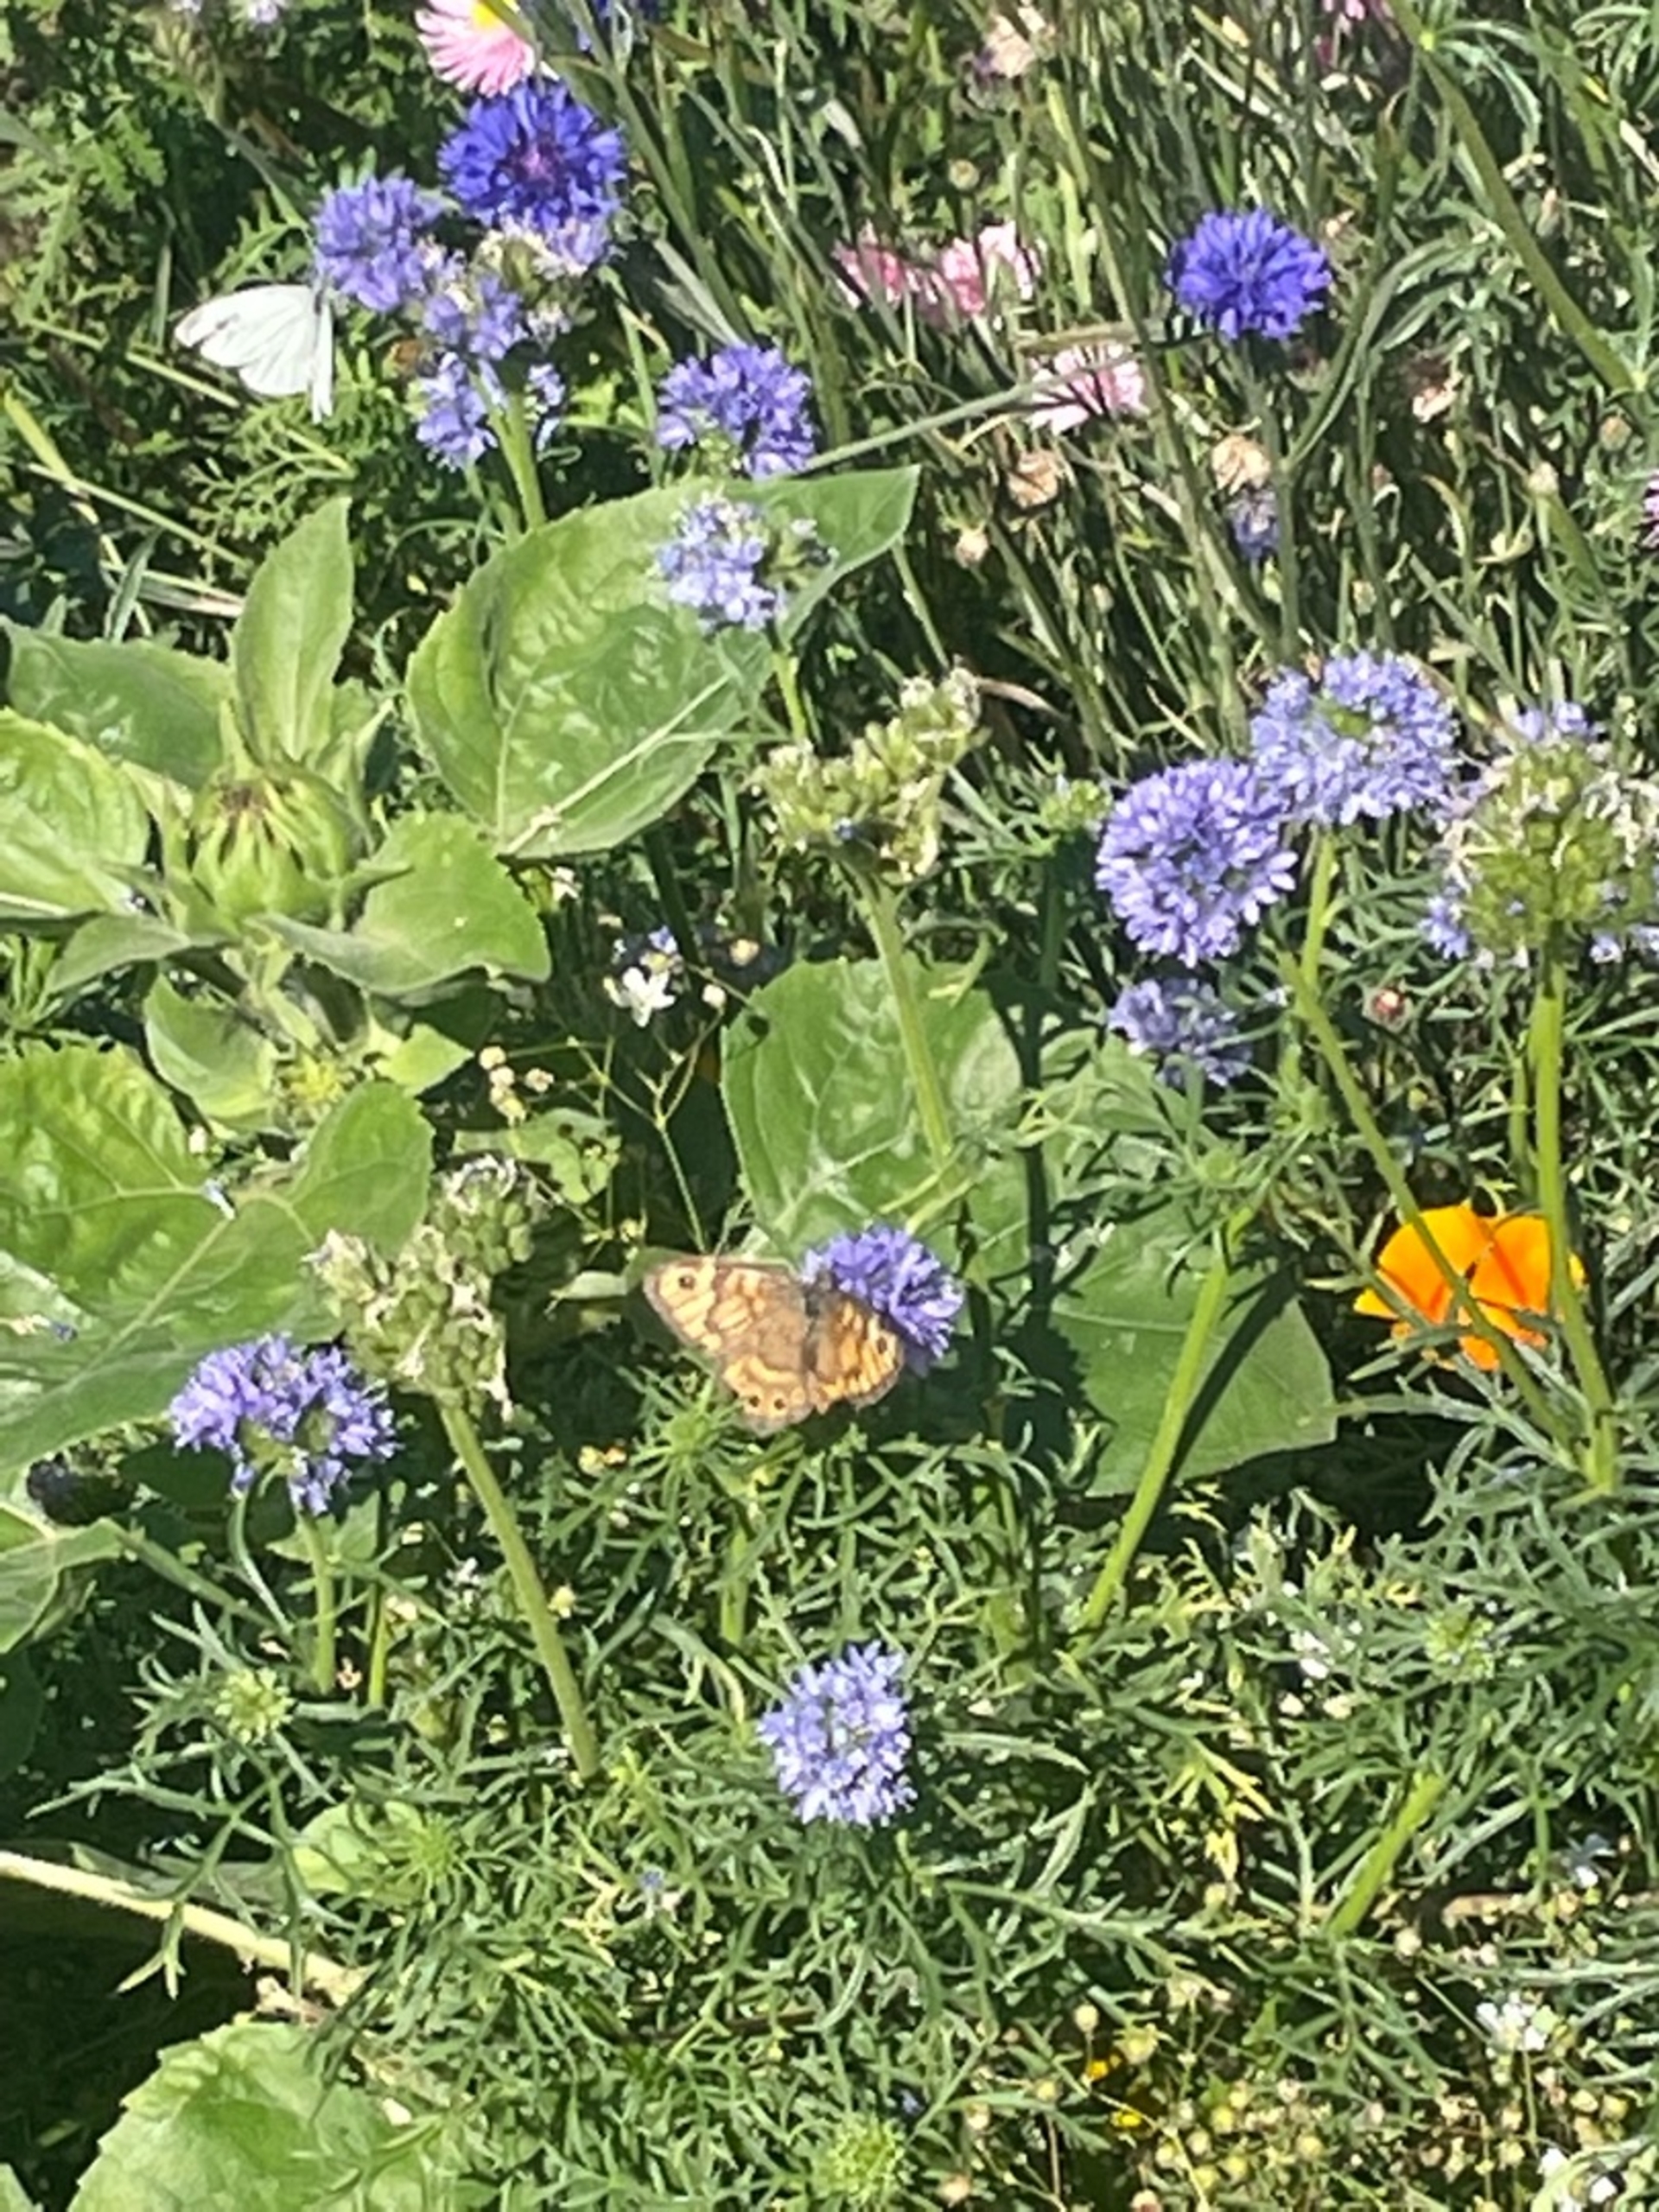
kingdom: Animalia
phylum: Arthropoda
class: Insecta
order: Lepidoptera
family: Nymphalidae
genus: Pararge
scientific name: Pararge Lasiommata megera
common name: Vejrandøje
